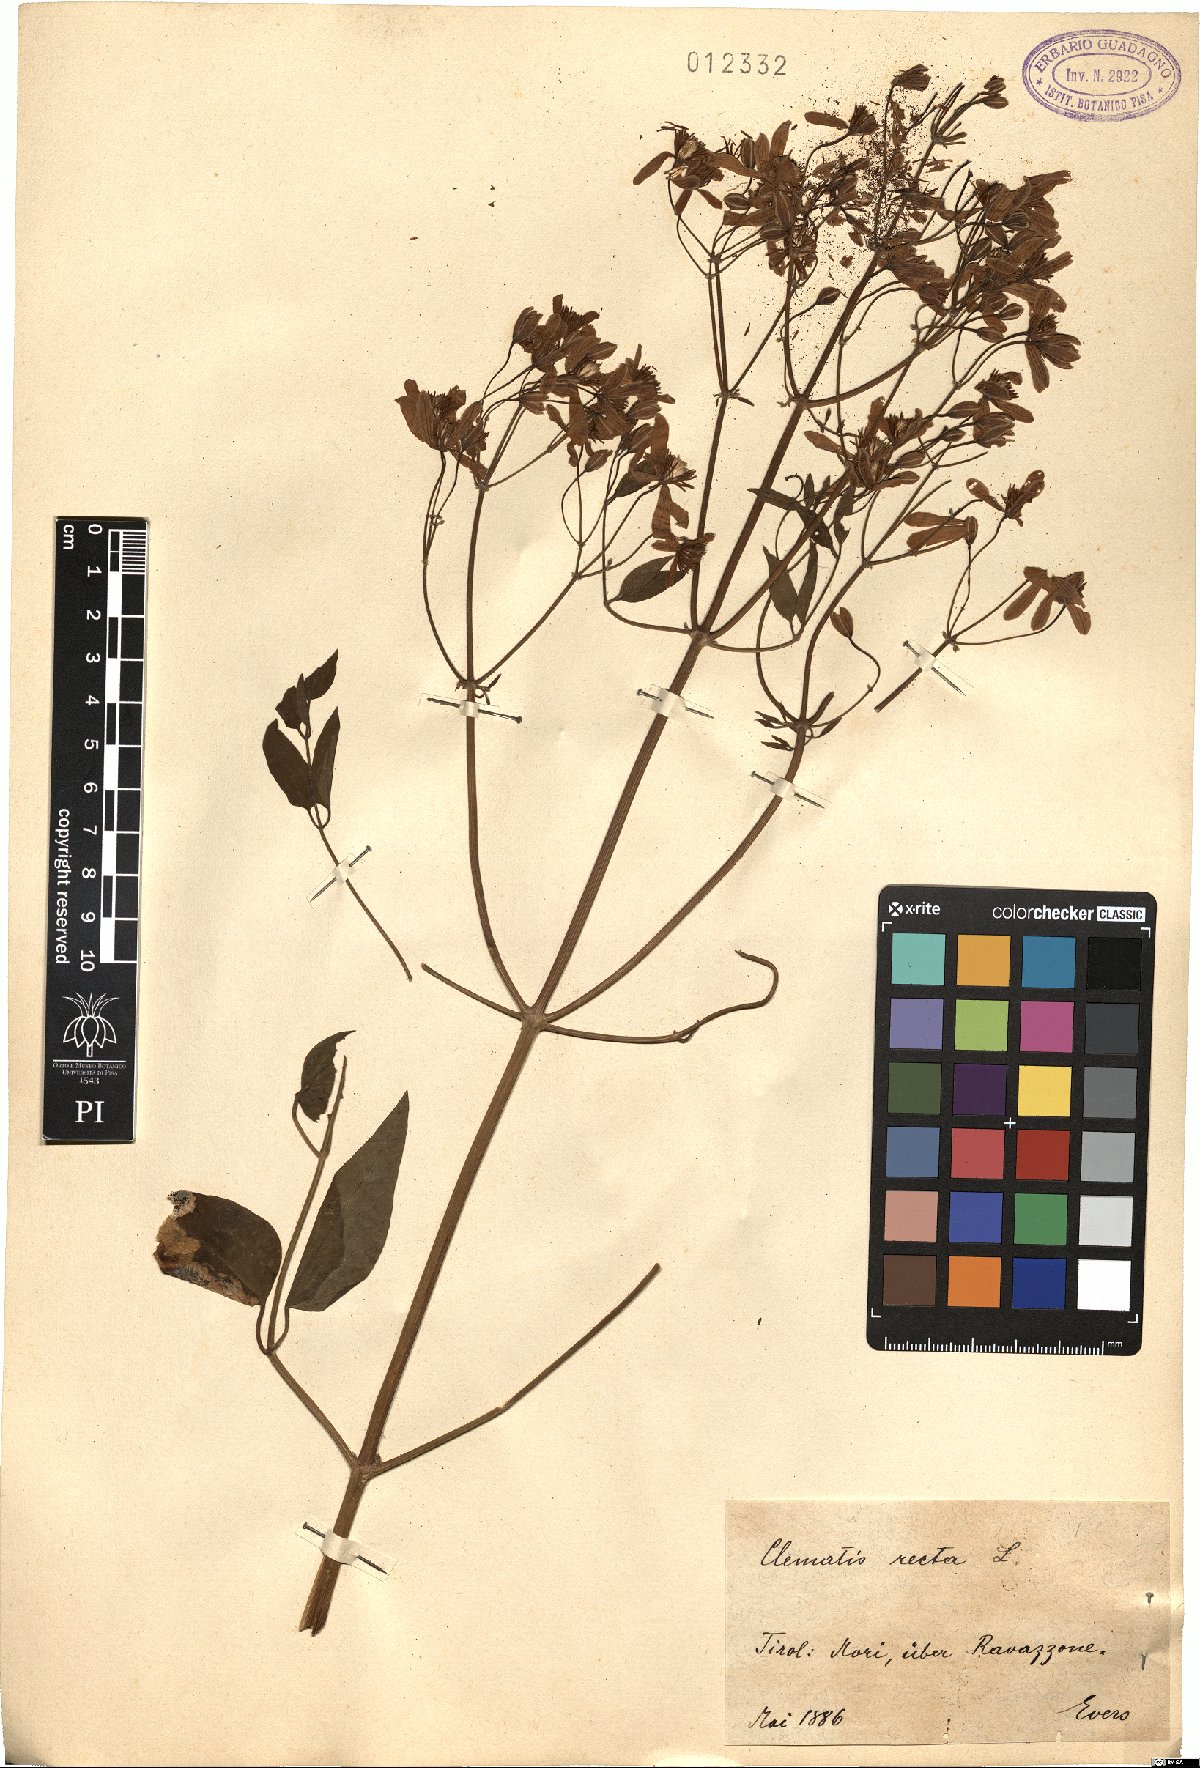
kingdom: Plantae
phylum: Tracheophyta
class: Magnoliopsida
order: Ranunculales
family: Ranunculaceae
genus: Clematis
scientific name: Clematis recta
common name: Ground clematis
